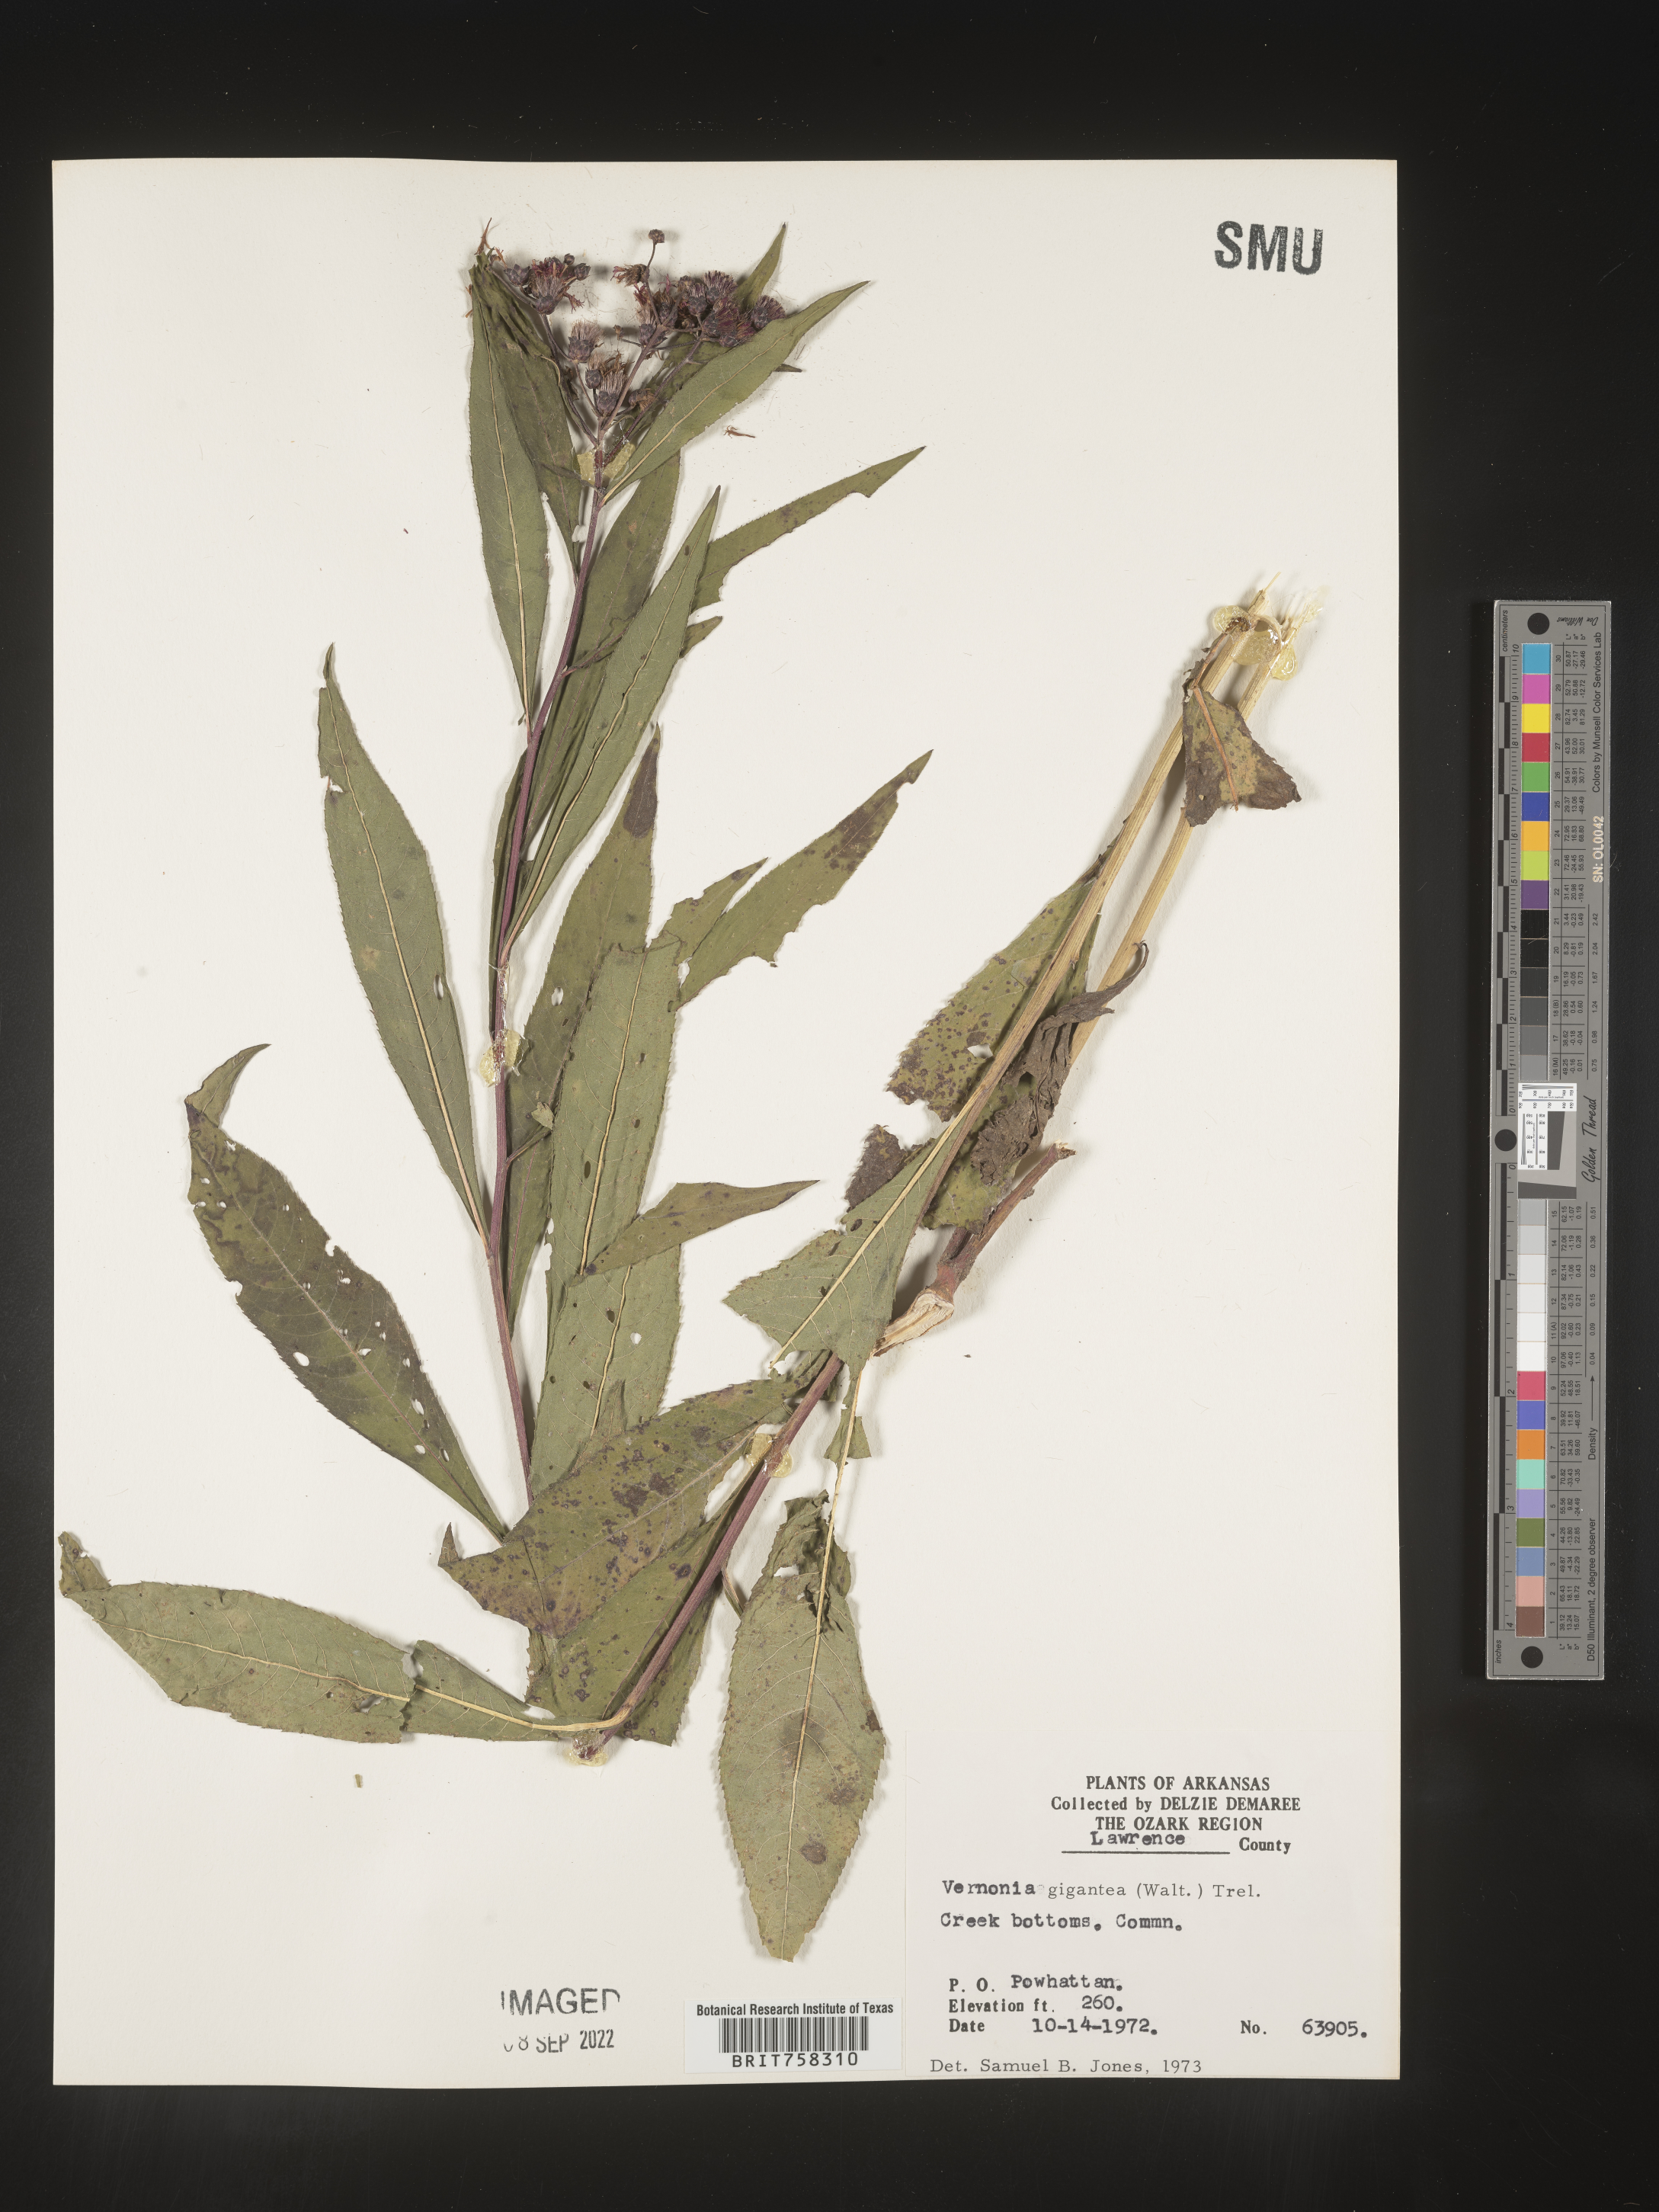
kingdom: Plantae
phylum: Tracheophyta
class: Magnoliopsida
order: Asterales
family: Asteraceae
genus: Vernonia
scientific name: Vernonia gigantea
